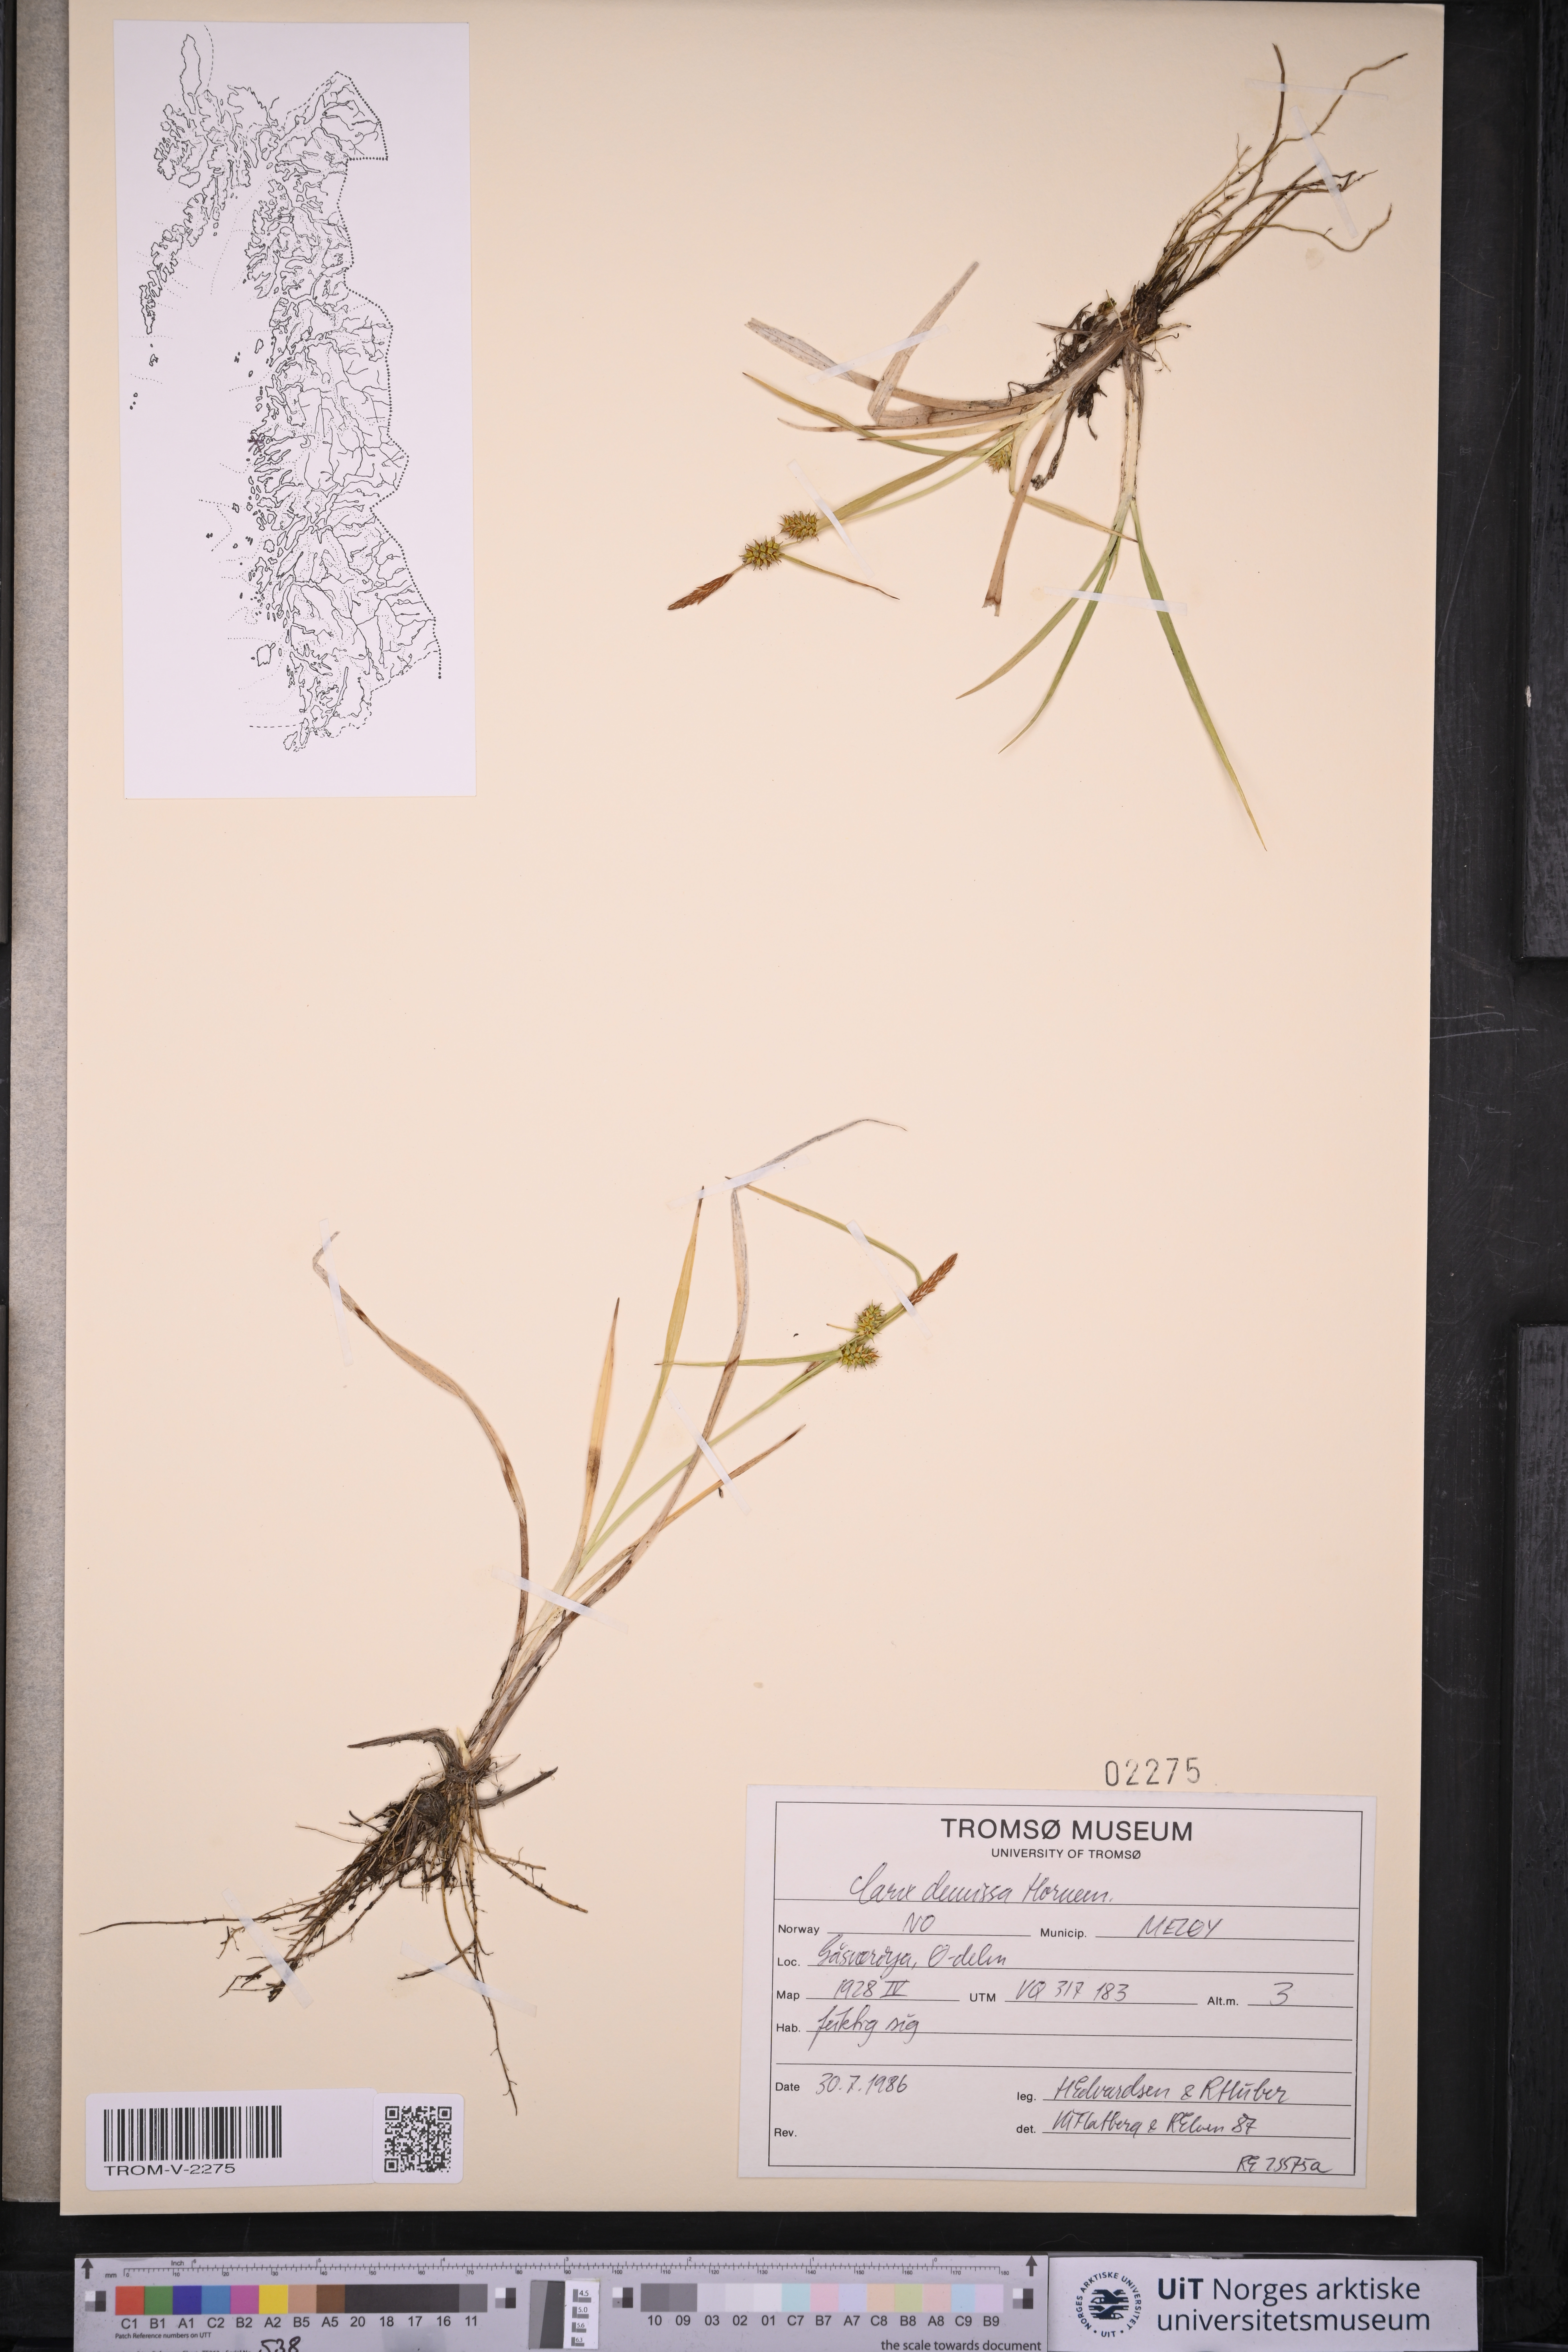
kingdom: Plantae
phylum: Tracheophyta
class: Liliopsida
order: Poales
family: Cyperaceae
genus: Carex
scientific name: Carex demissa
